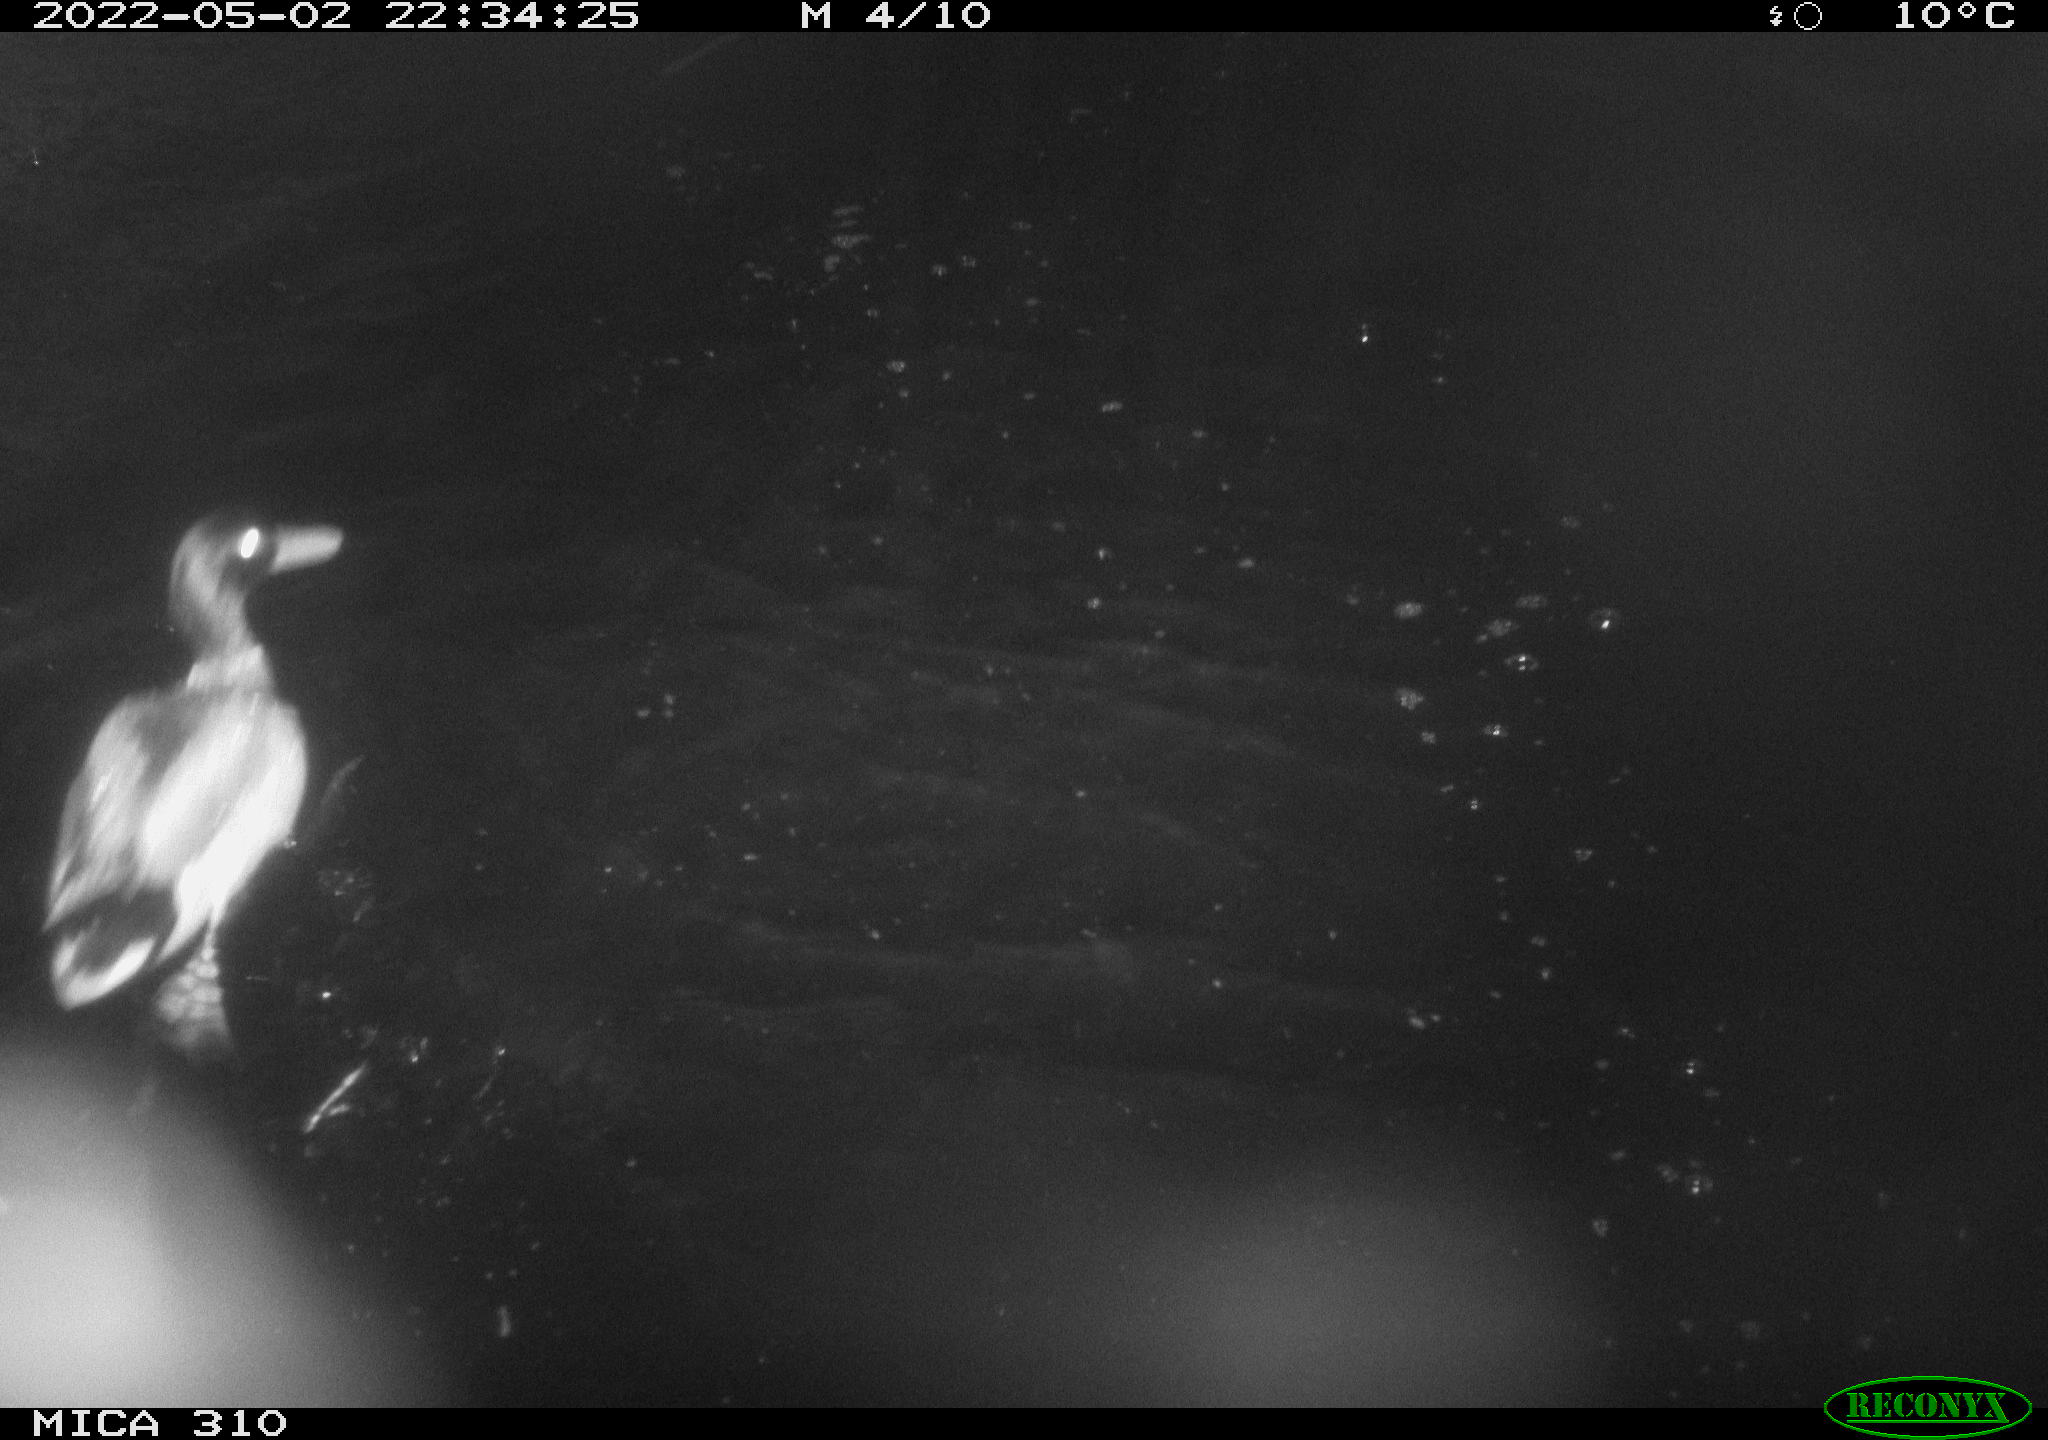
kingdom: Animalia
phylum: Chordata
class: Aves
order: Anseriformes
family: Anatidae
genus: Anas
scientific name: Anas platyrhynchos
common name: Mallard
